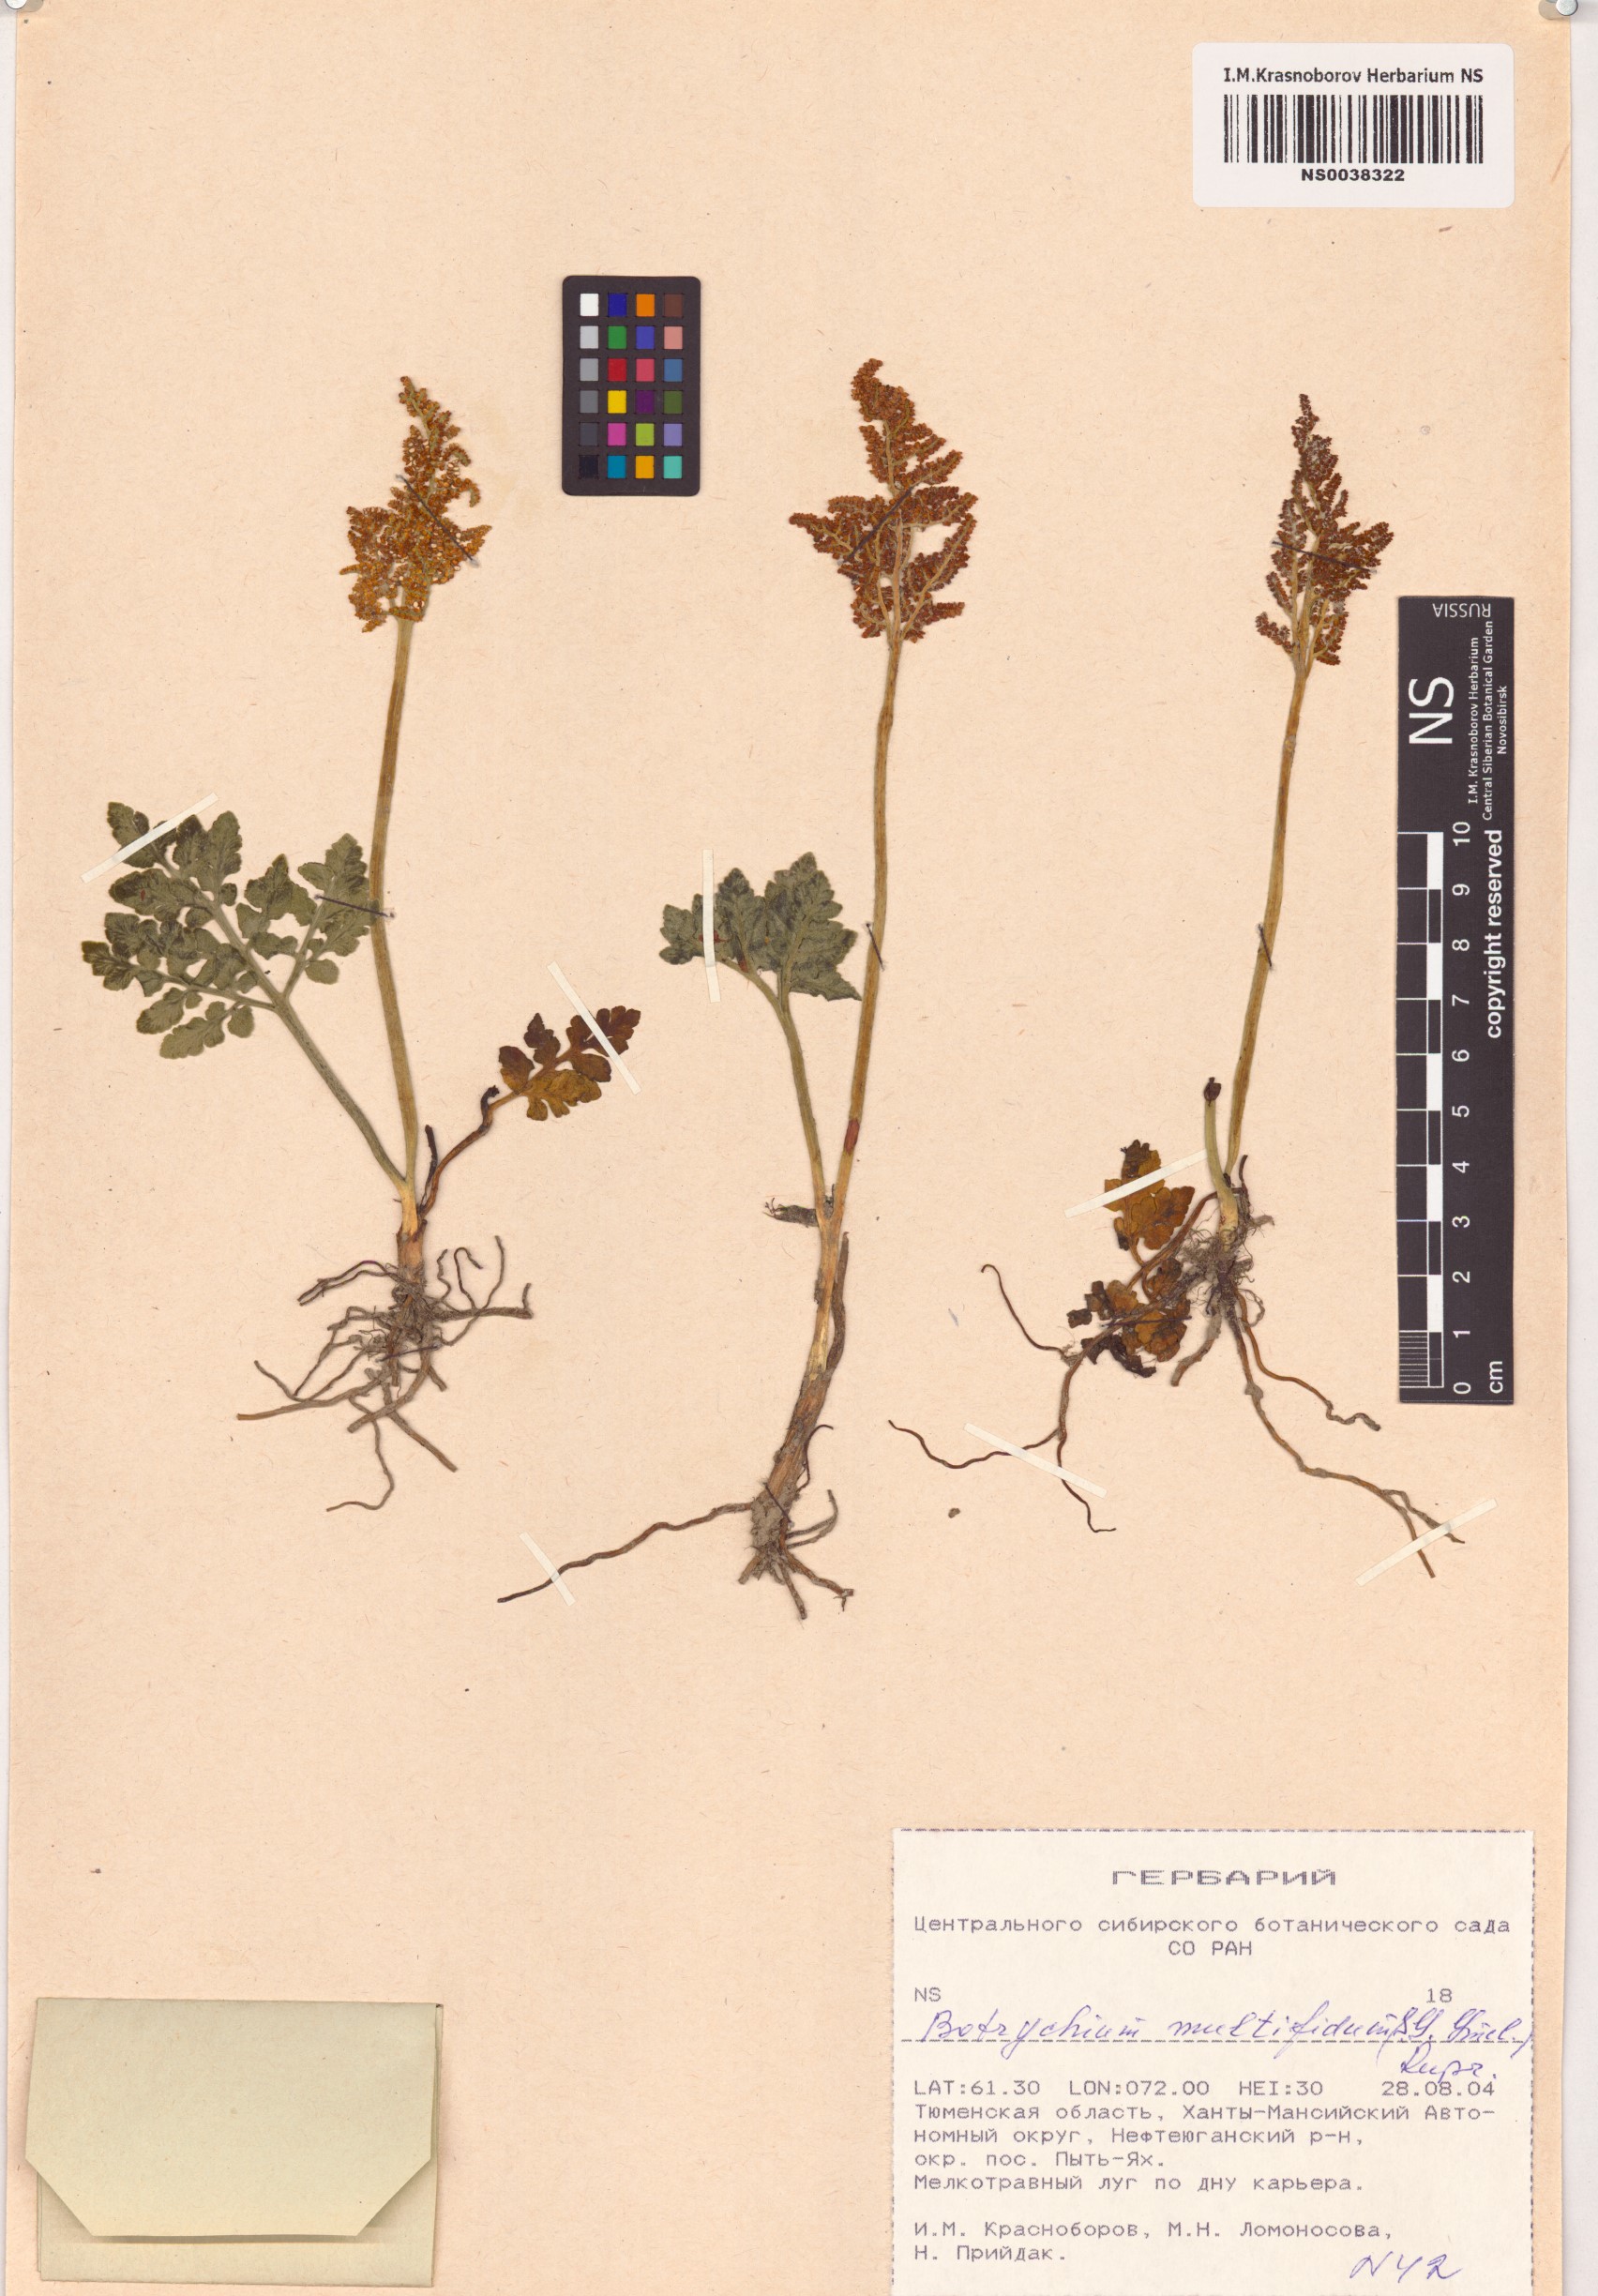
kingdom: Plantae
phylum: Tracheophyta
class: Polypodiopsida
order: Ophioglossales
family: Ophioglossaceae
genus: Sceptridium
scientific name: Sceptridium multifidum
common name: Leathery grape fern
